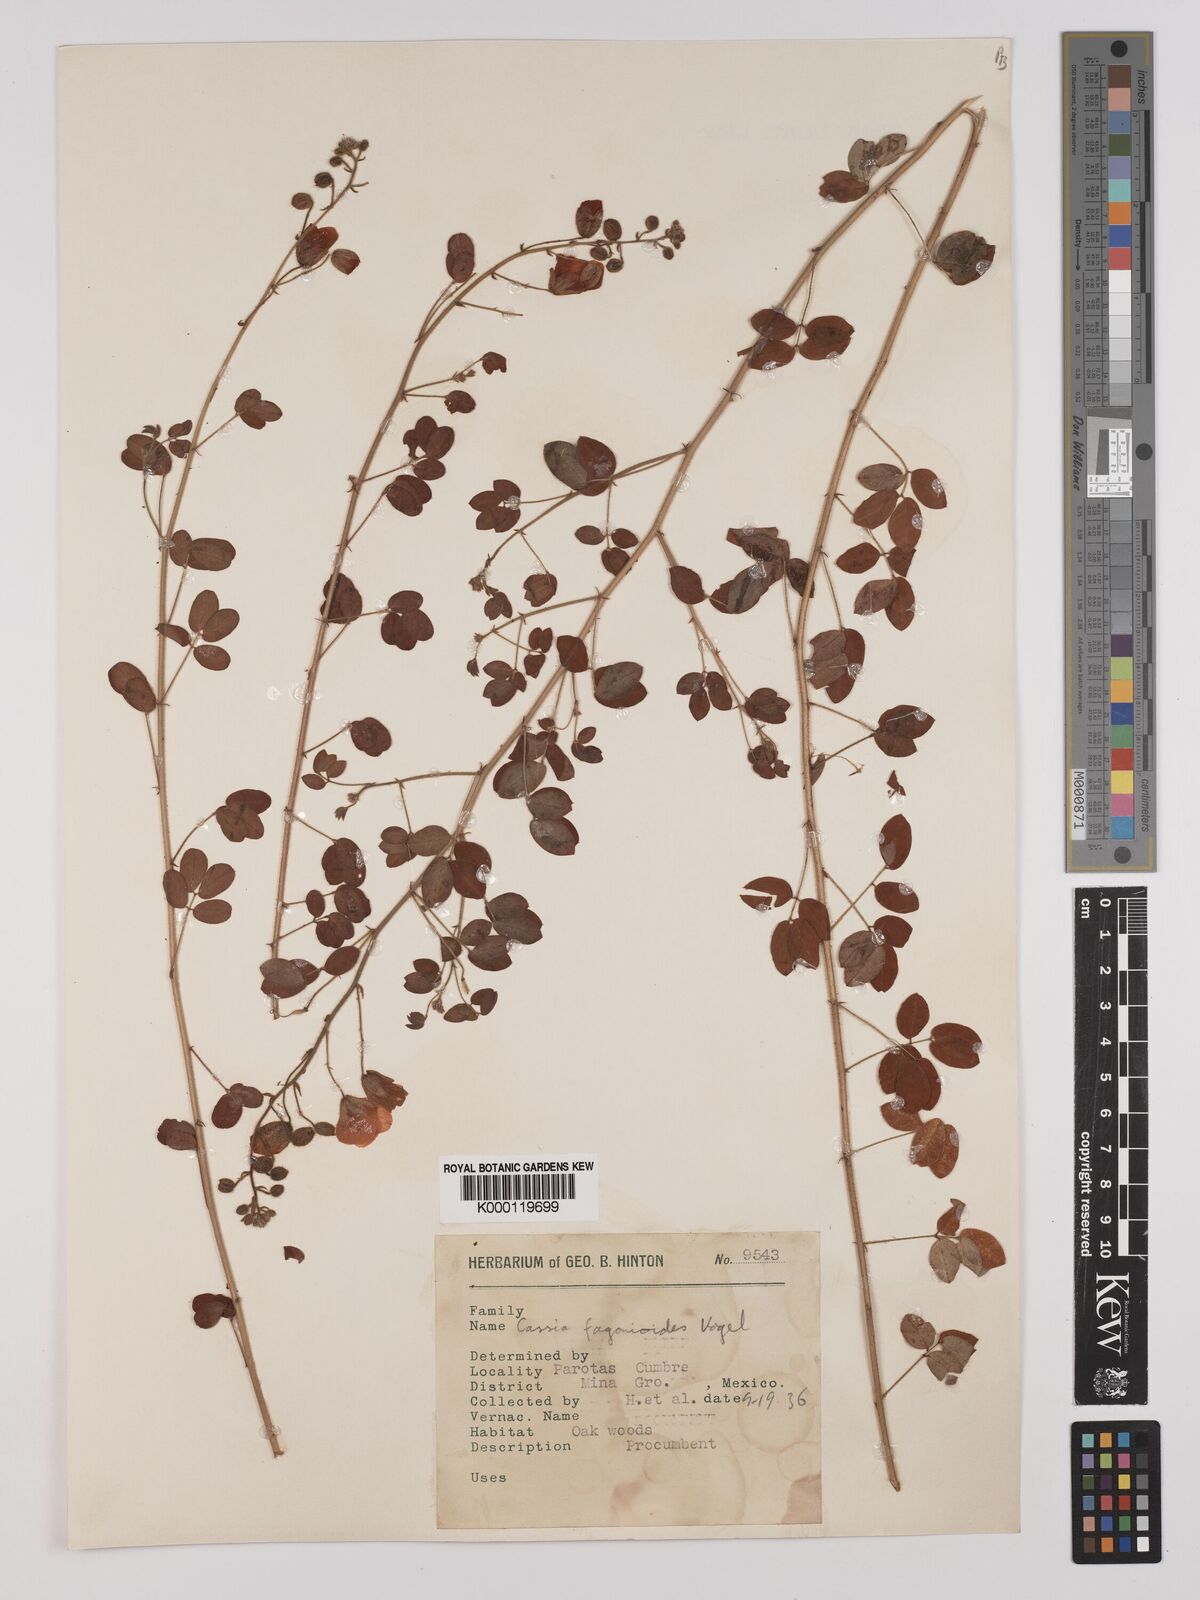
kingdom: Plantae
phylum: Tracheophyta
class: Magnoliopsida
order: Fabales
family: Fabaceae
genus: Chamaecrista
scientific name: Chamaecrista hispidula
